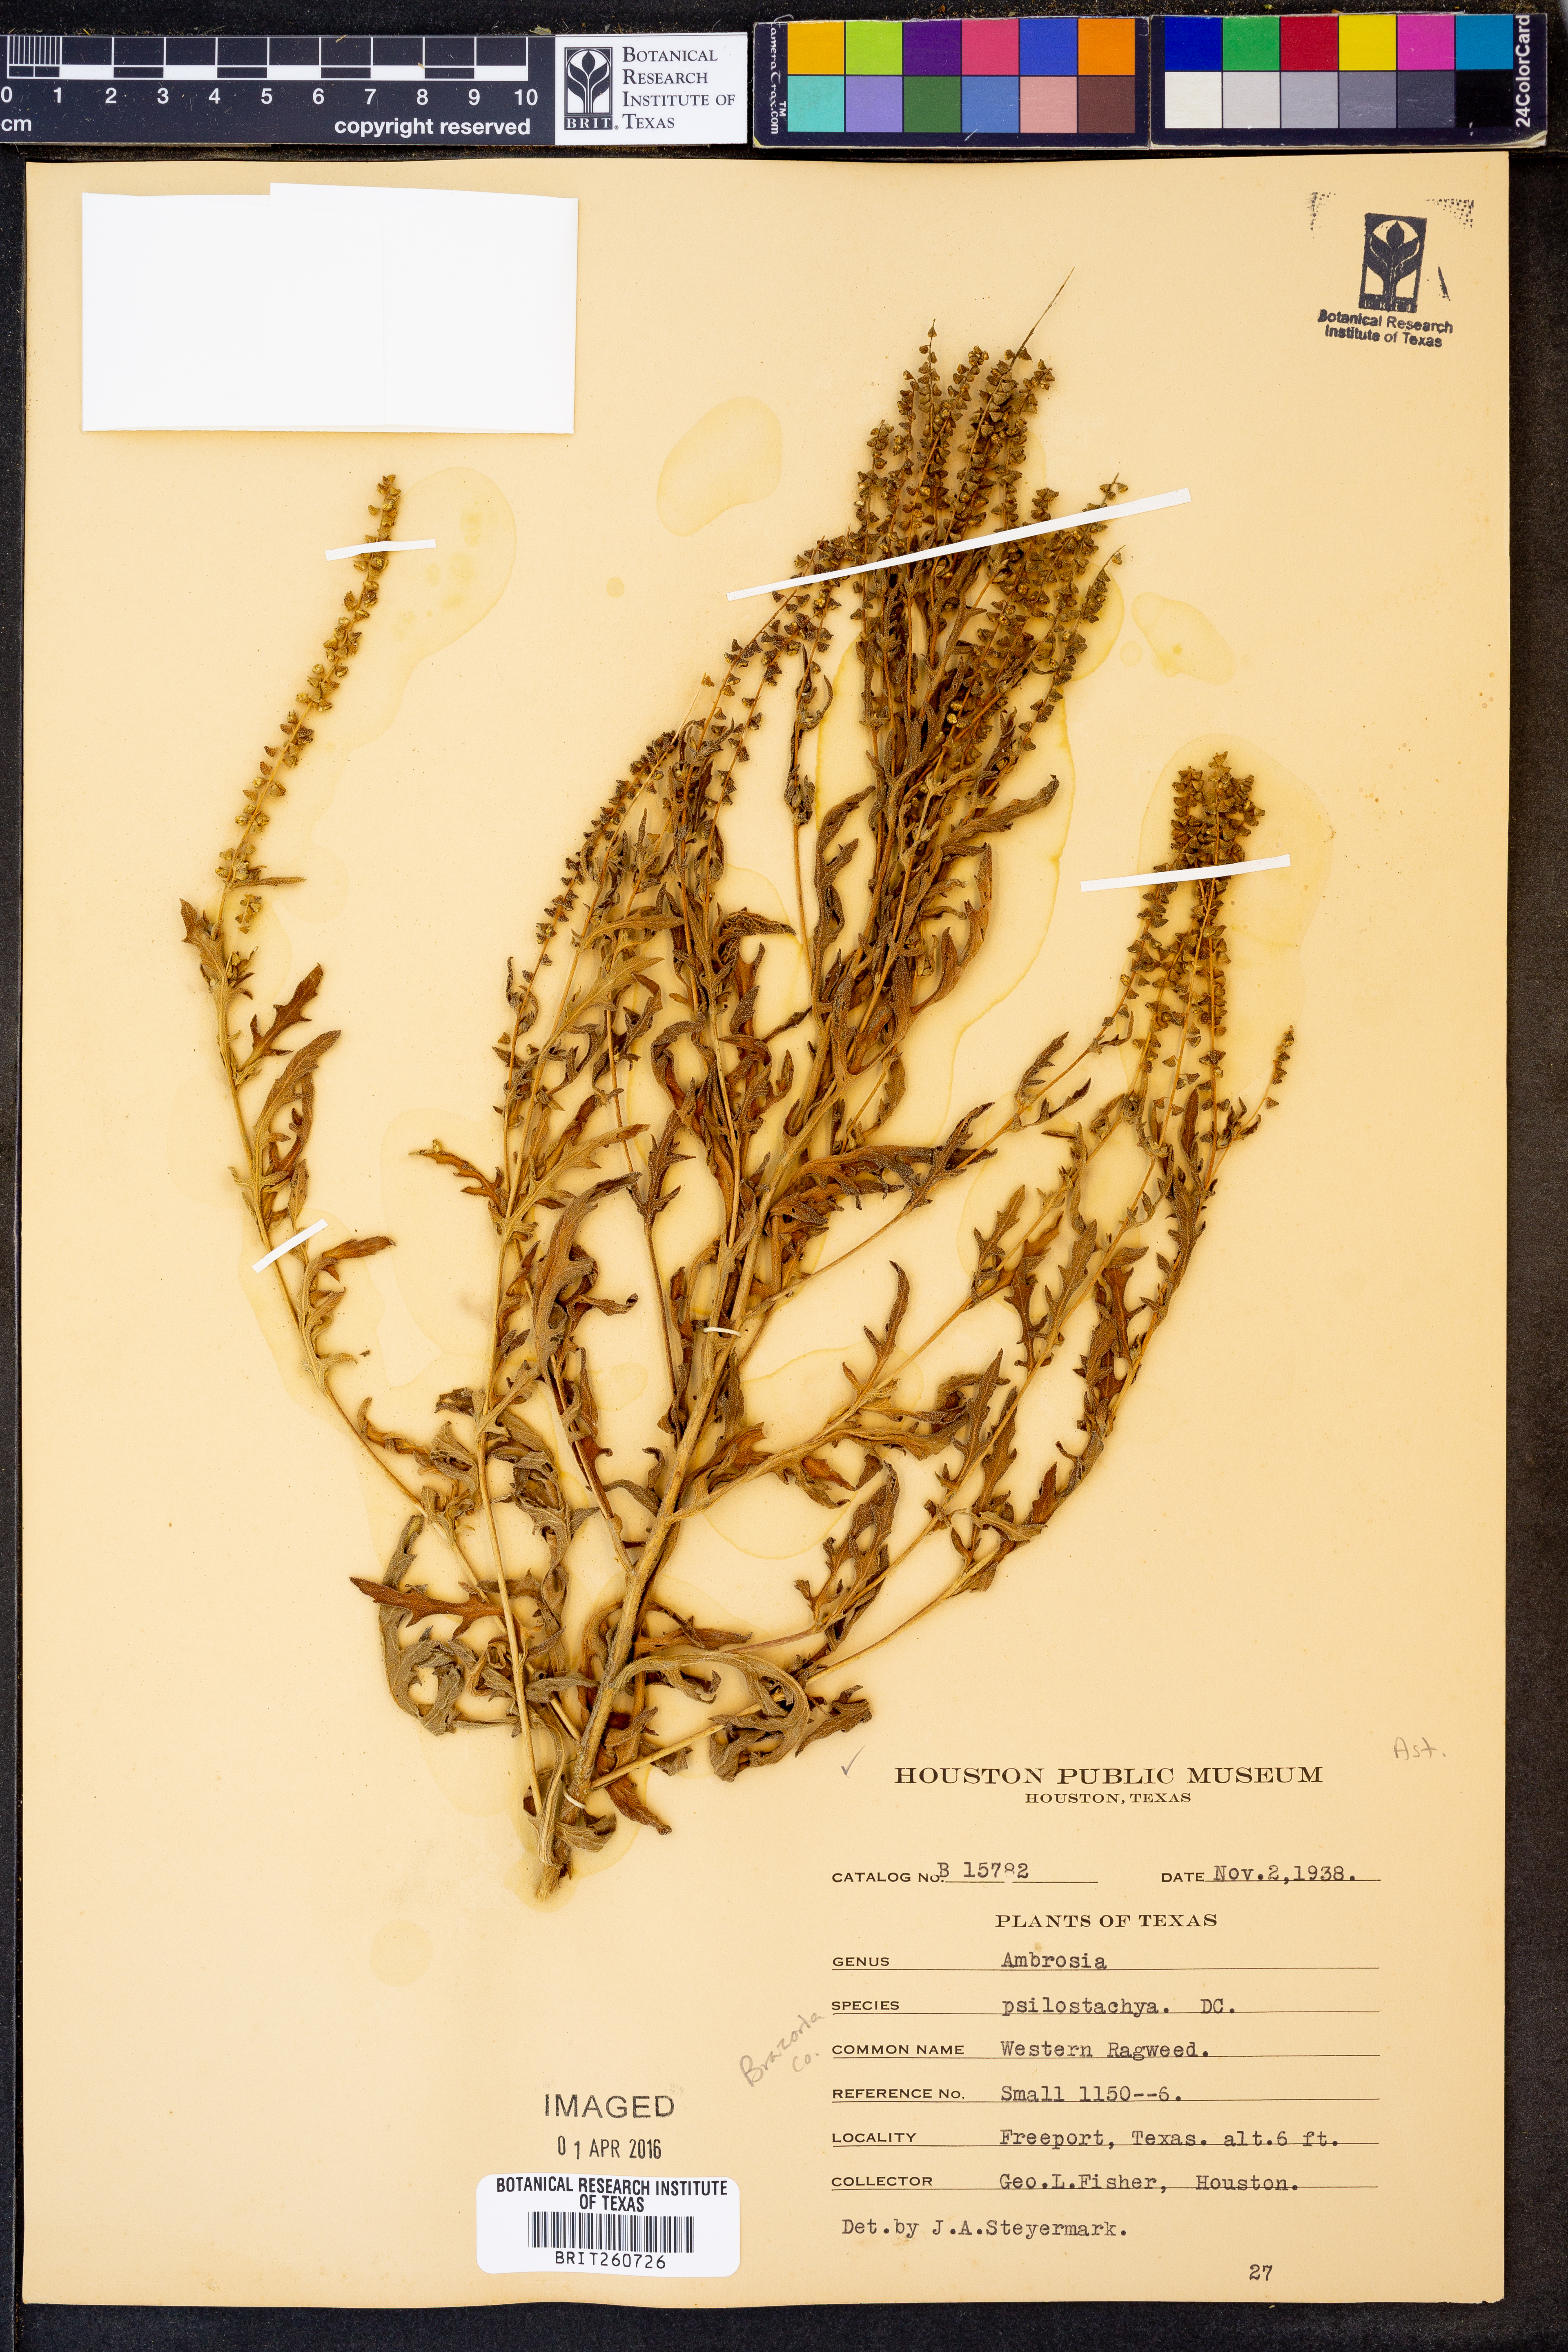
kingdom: Plantae
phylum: Tracheophyta
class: Magnoliopsida
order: Asterales
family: Asteraceae
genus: Ambrosia
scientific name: Ambrosia psilostachya
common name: Perennial ragweed
